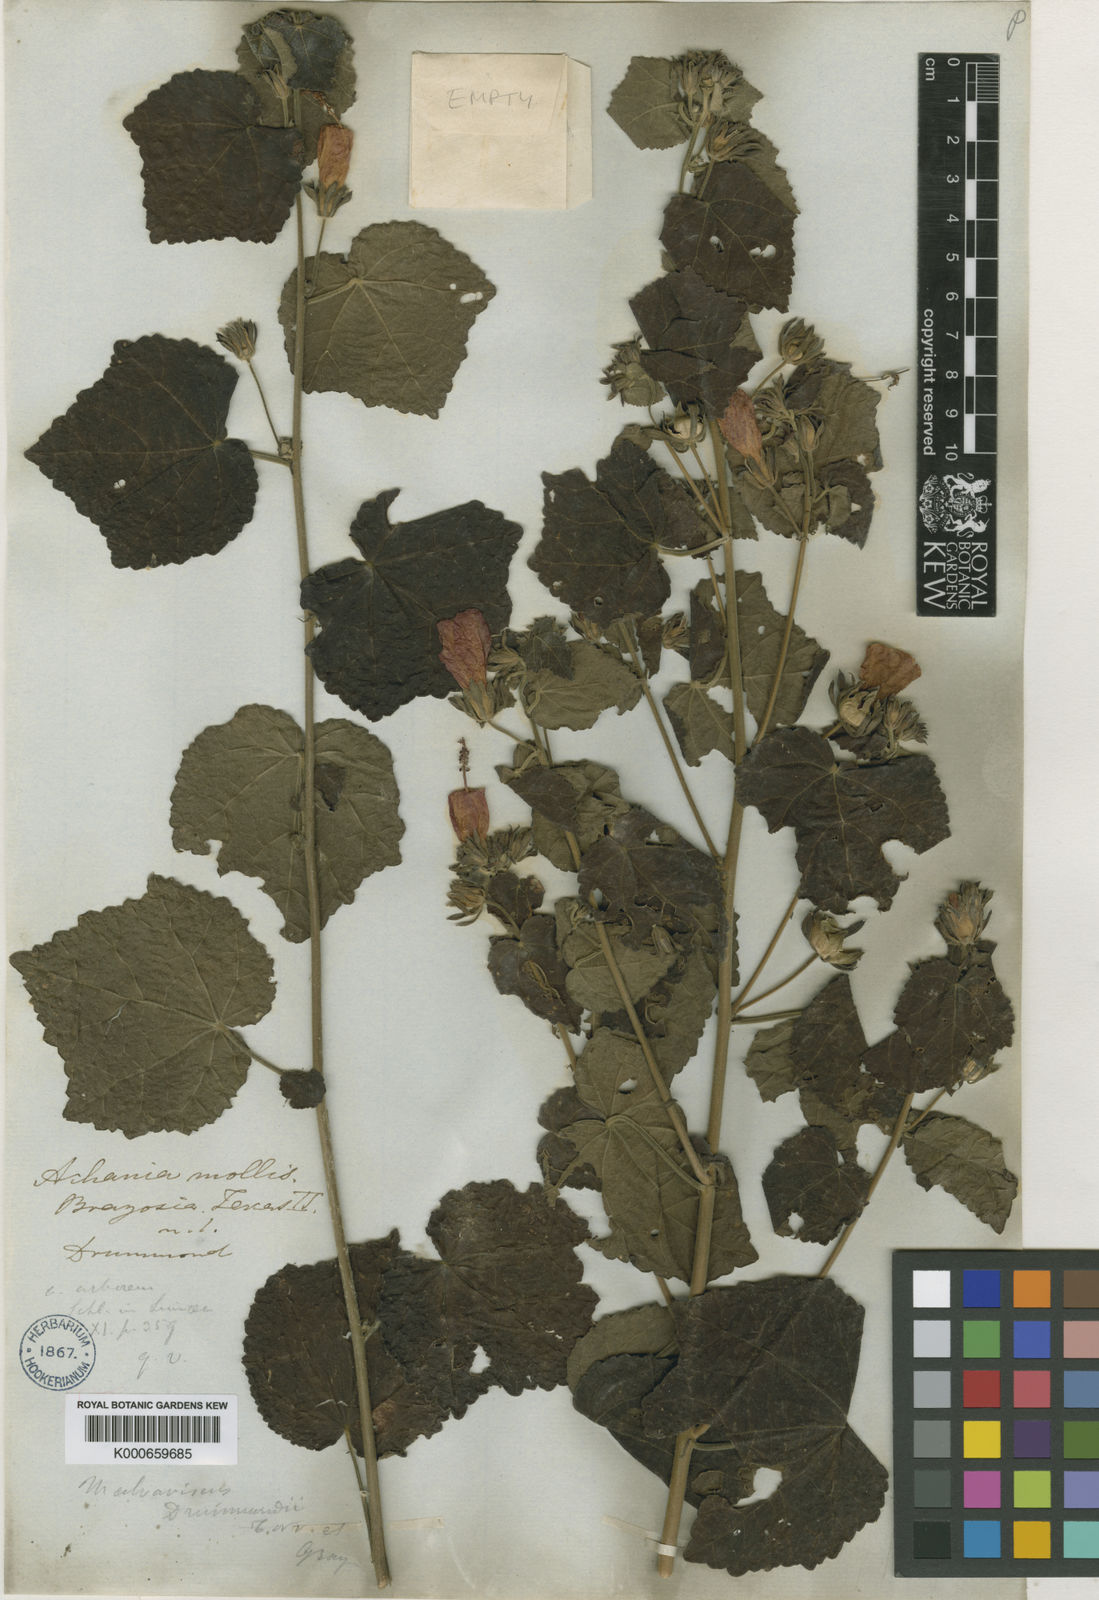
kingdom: Plantae
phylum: Tracheophyta
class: Magnoliopsida
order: Malvales
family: Malvaceae
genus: Malvaviscus
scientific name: Malvaviscus arboreus
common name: Wax mallow
